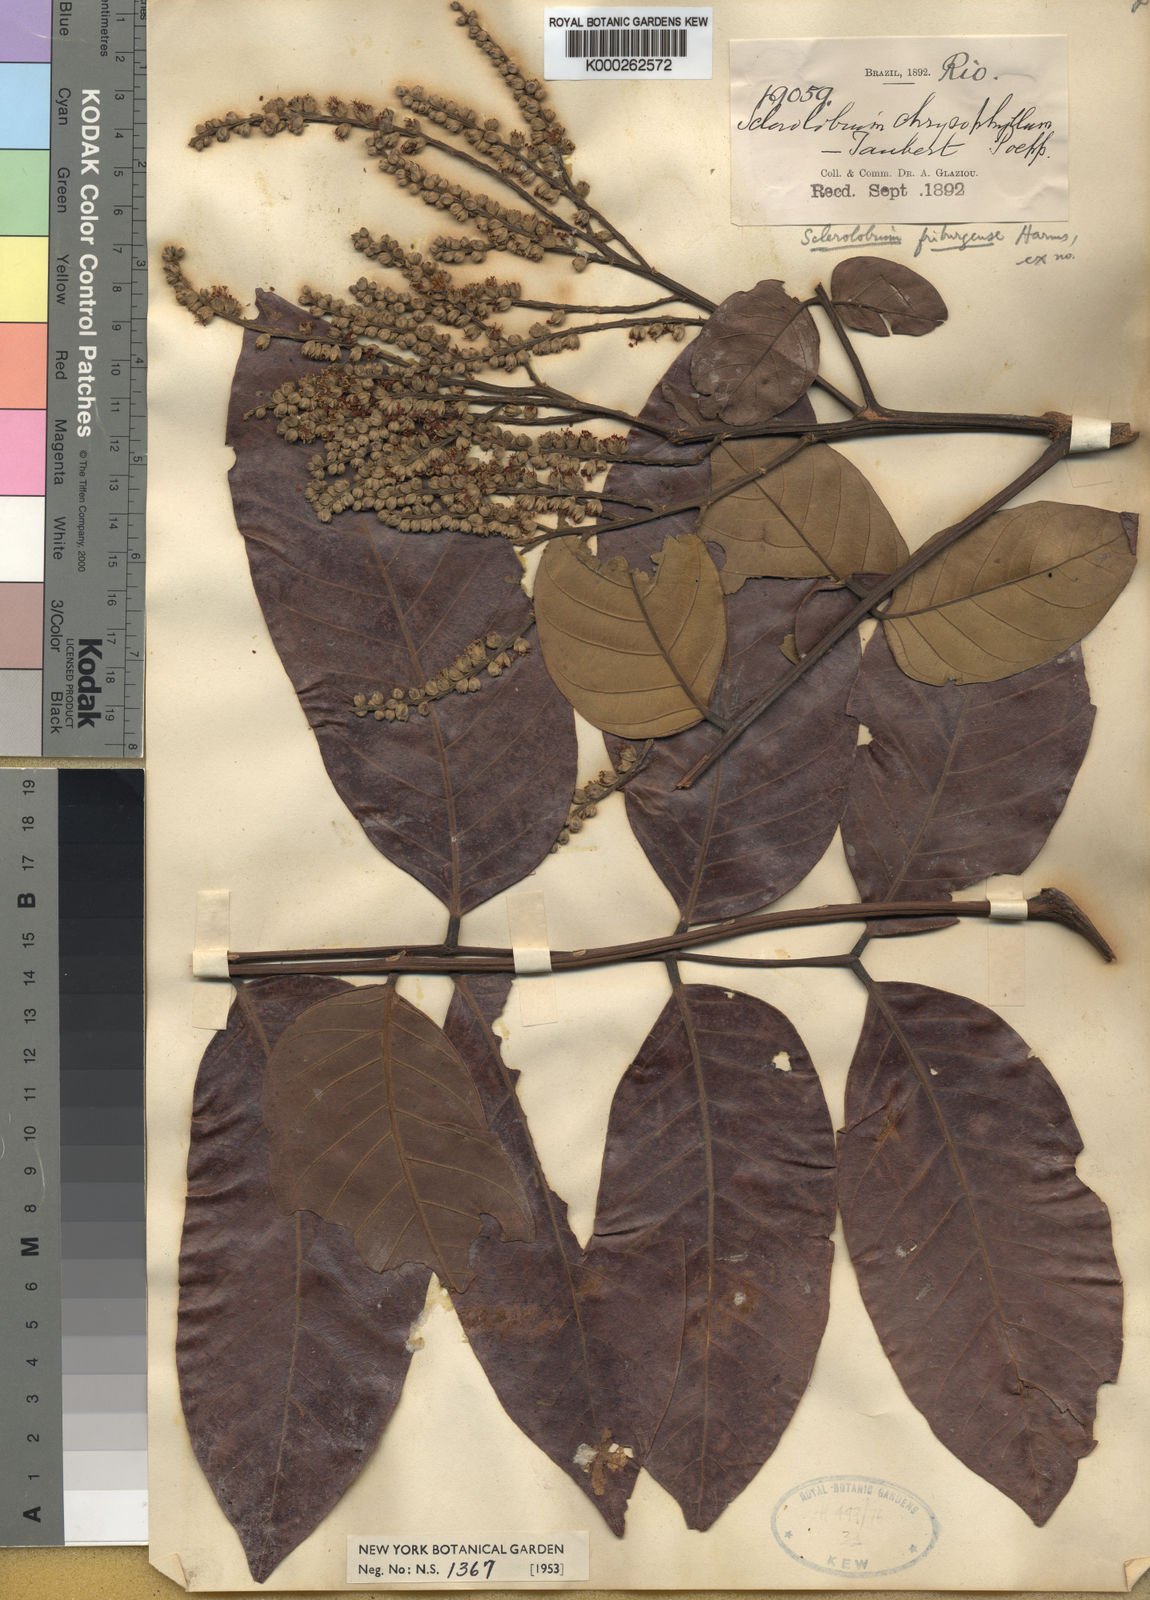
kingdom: Plantae
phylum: Tracheophyta
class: Magnoliopsida
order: Fabales
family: Fabaceae
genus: Tachigali
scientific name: Tachigali
